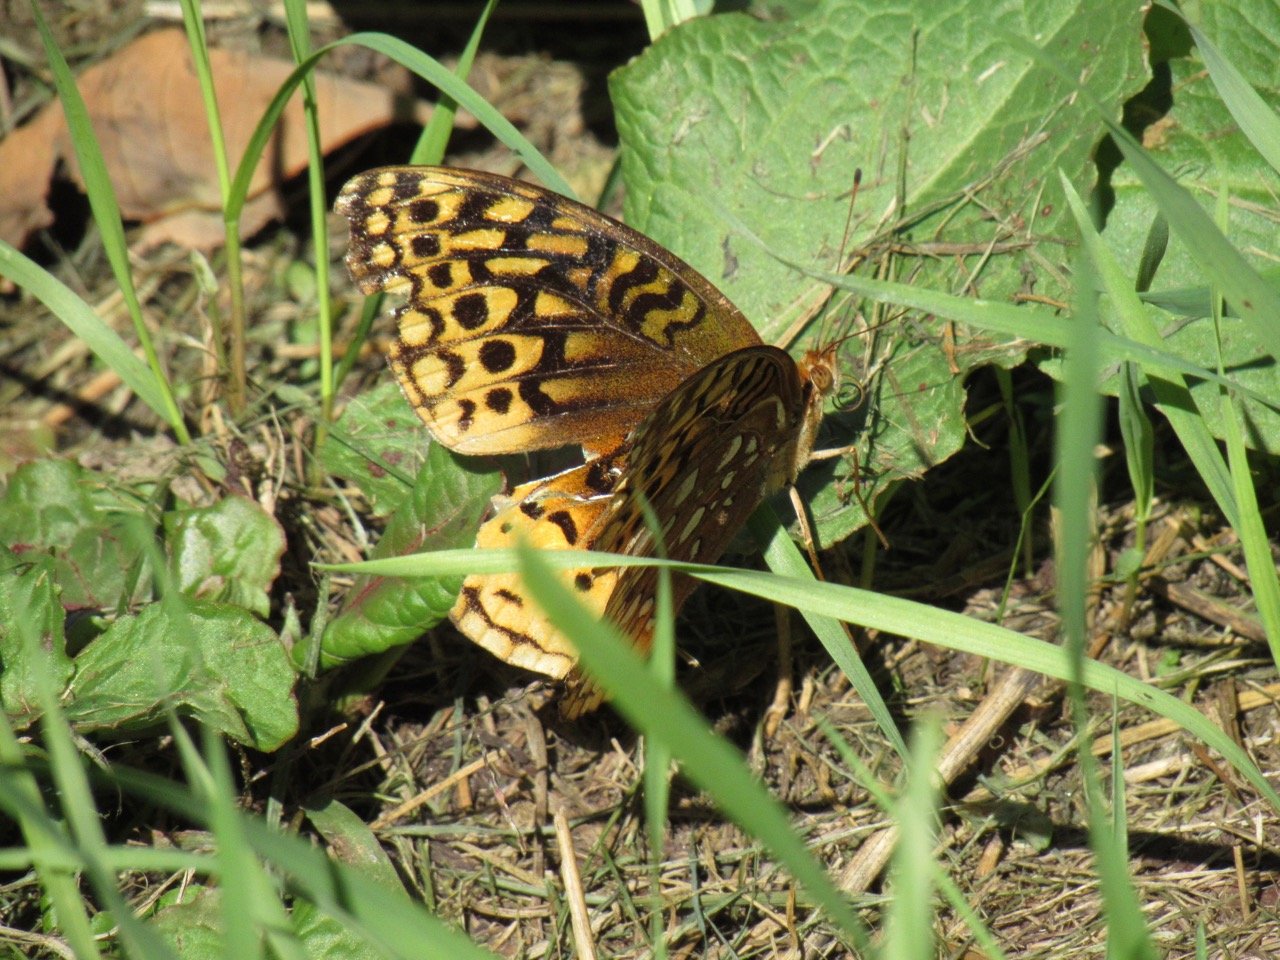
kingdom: Animalia
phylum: Arthropoda
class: Insecta
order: Lepidoptera
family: Nymphalidae
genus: Speyeria
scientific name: Speyeria cybele
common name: Great Spangled Fritillary
